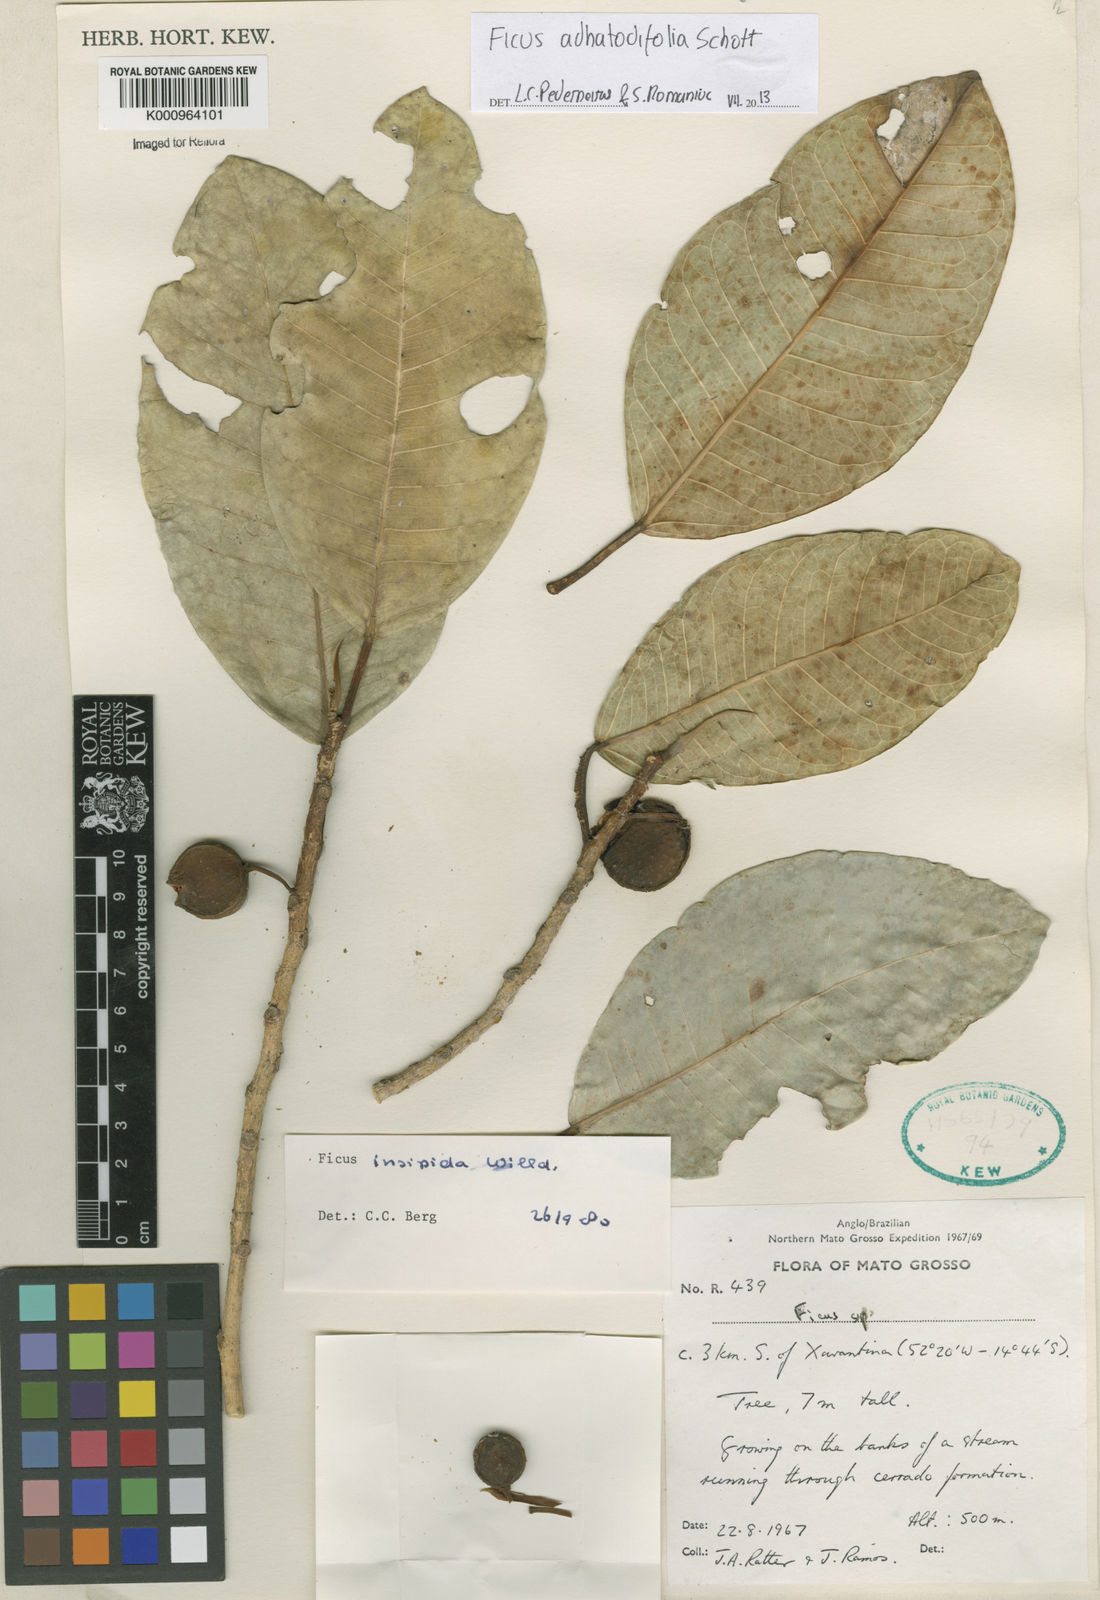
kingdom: Plantae
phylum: Tracheophyta
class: Magnoliopsida
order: Rosales
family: Moraceae
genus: Ficus
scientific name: Ficus
